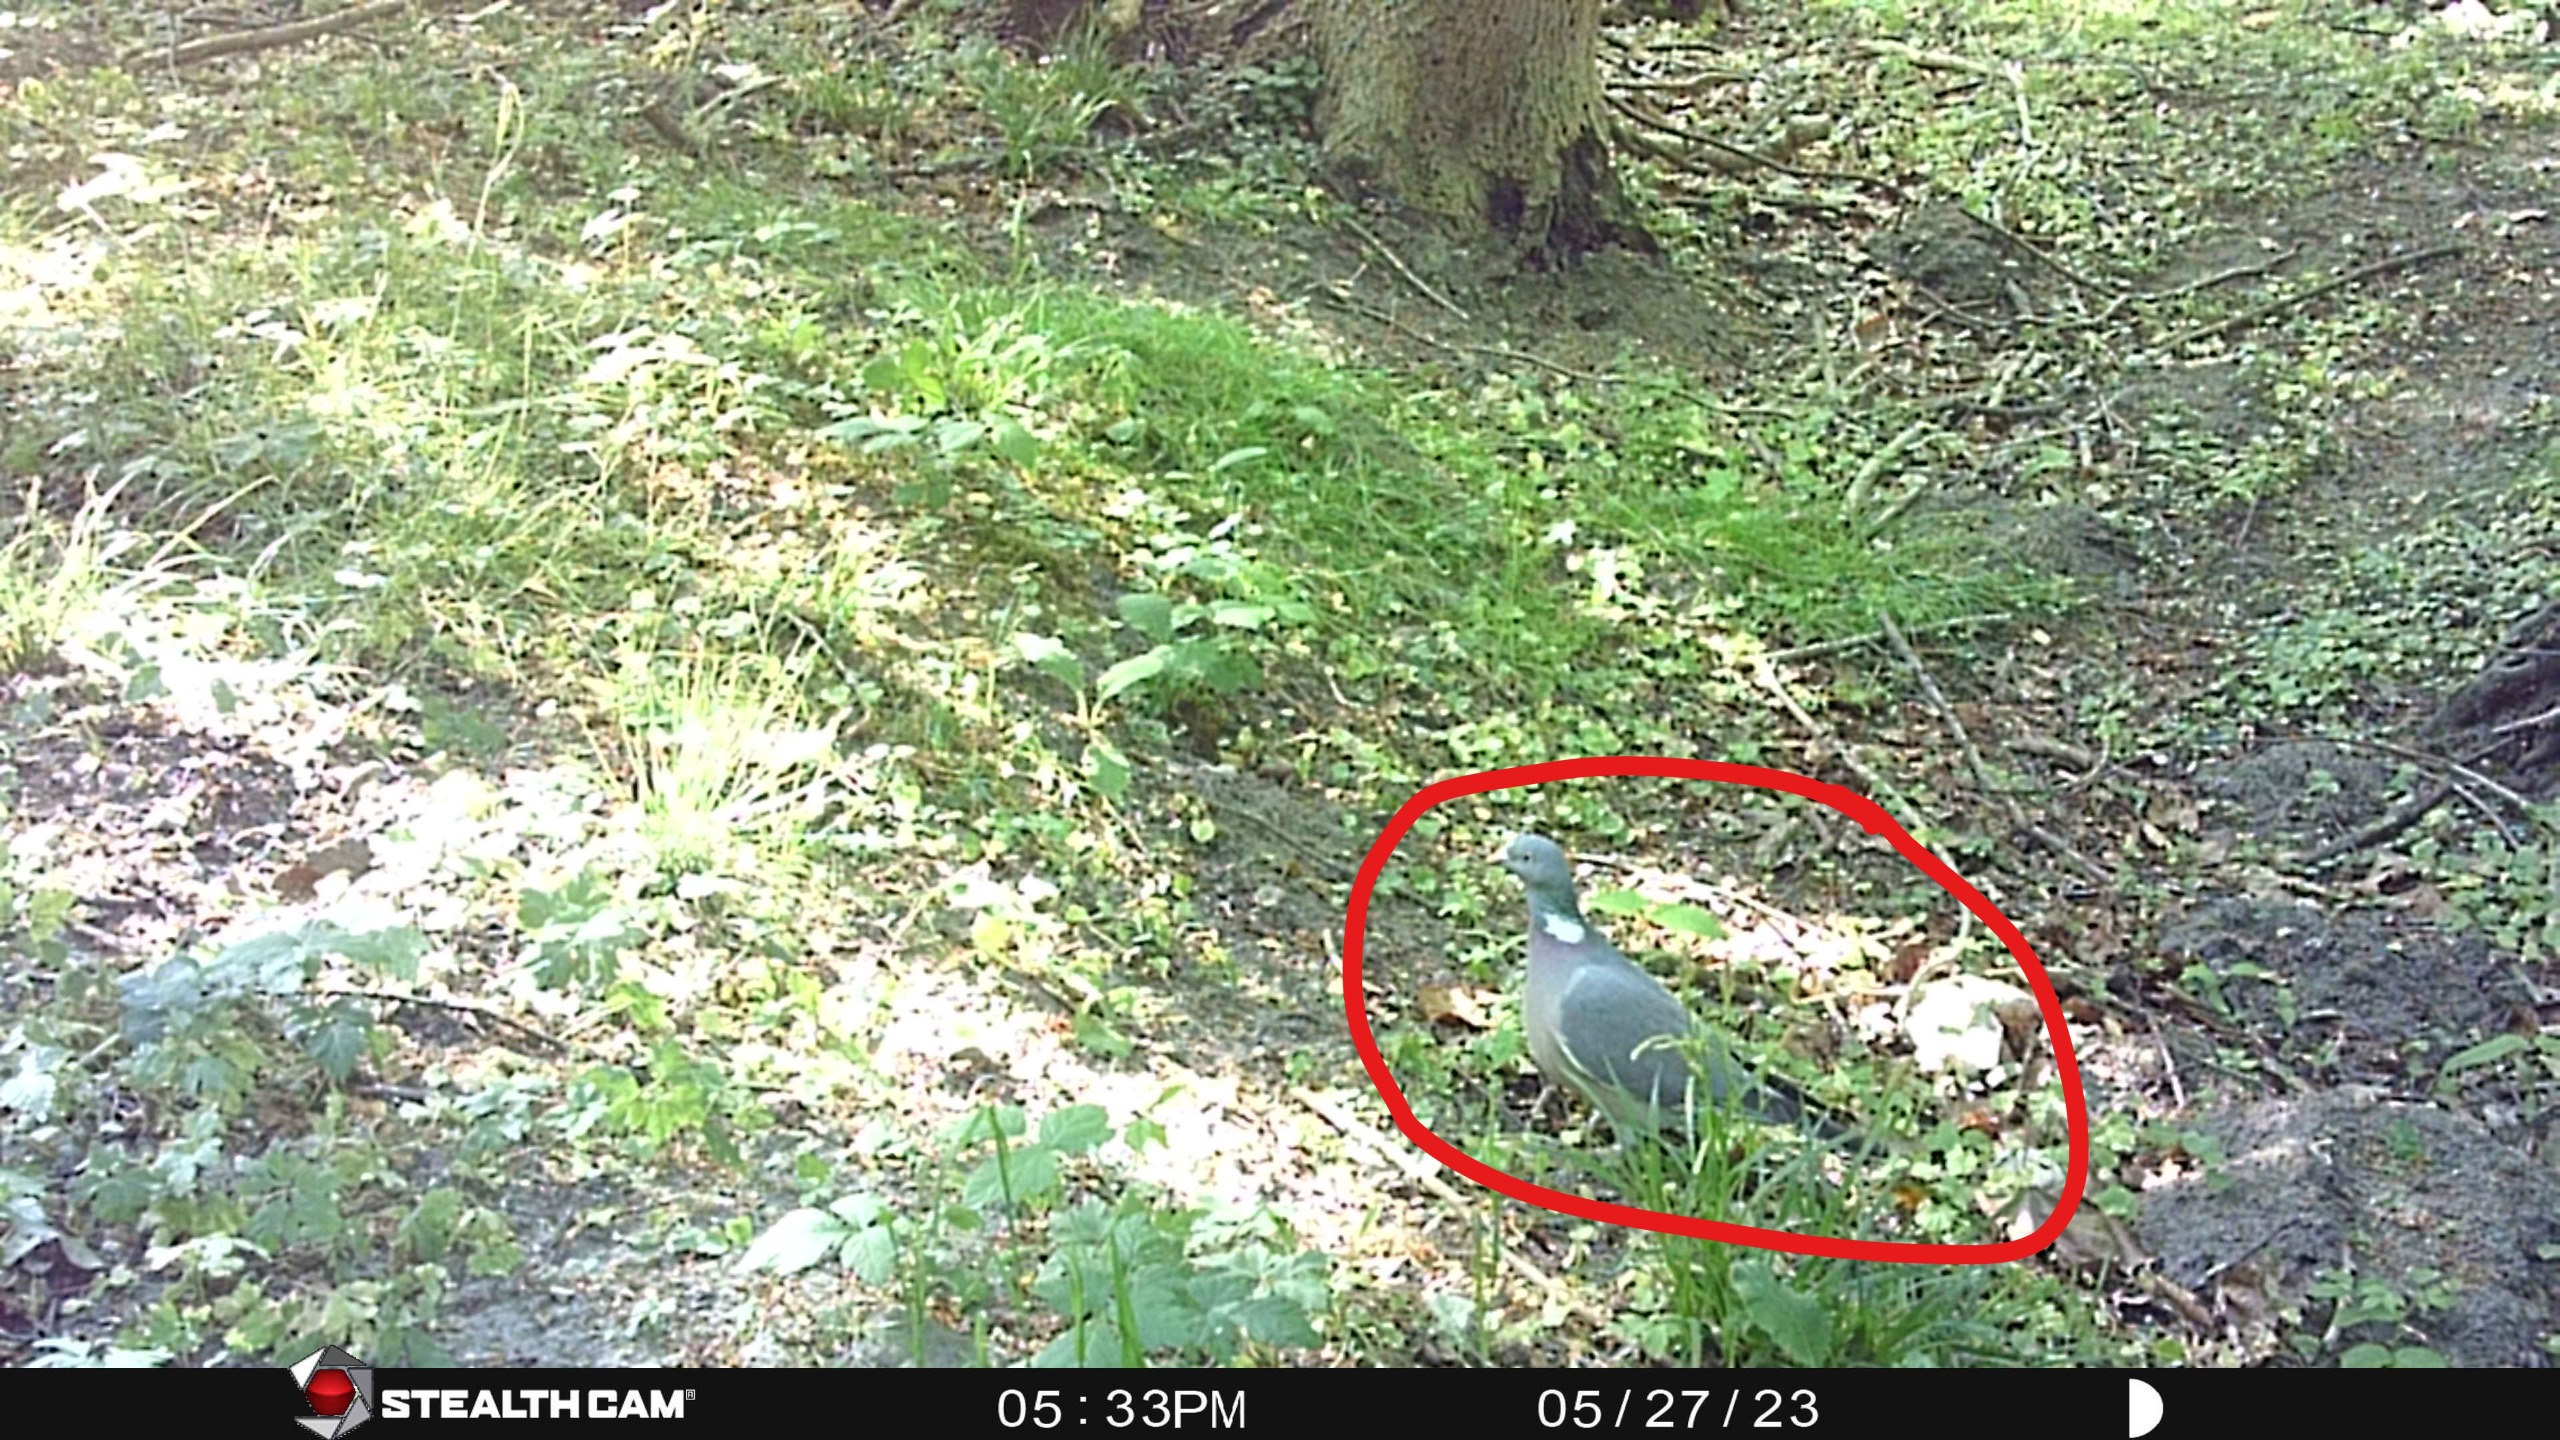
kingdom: Animalia
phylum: Chordata
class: Aves
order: Columbiformes
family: Columbidae
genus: Columba
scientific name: Columba palumbus
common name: Ringdue
